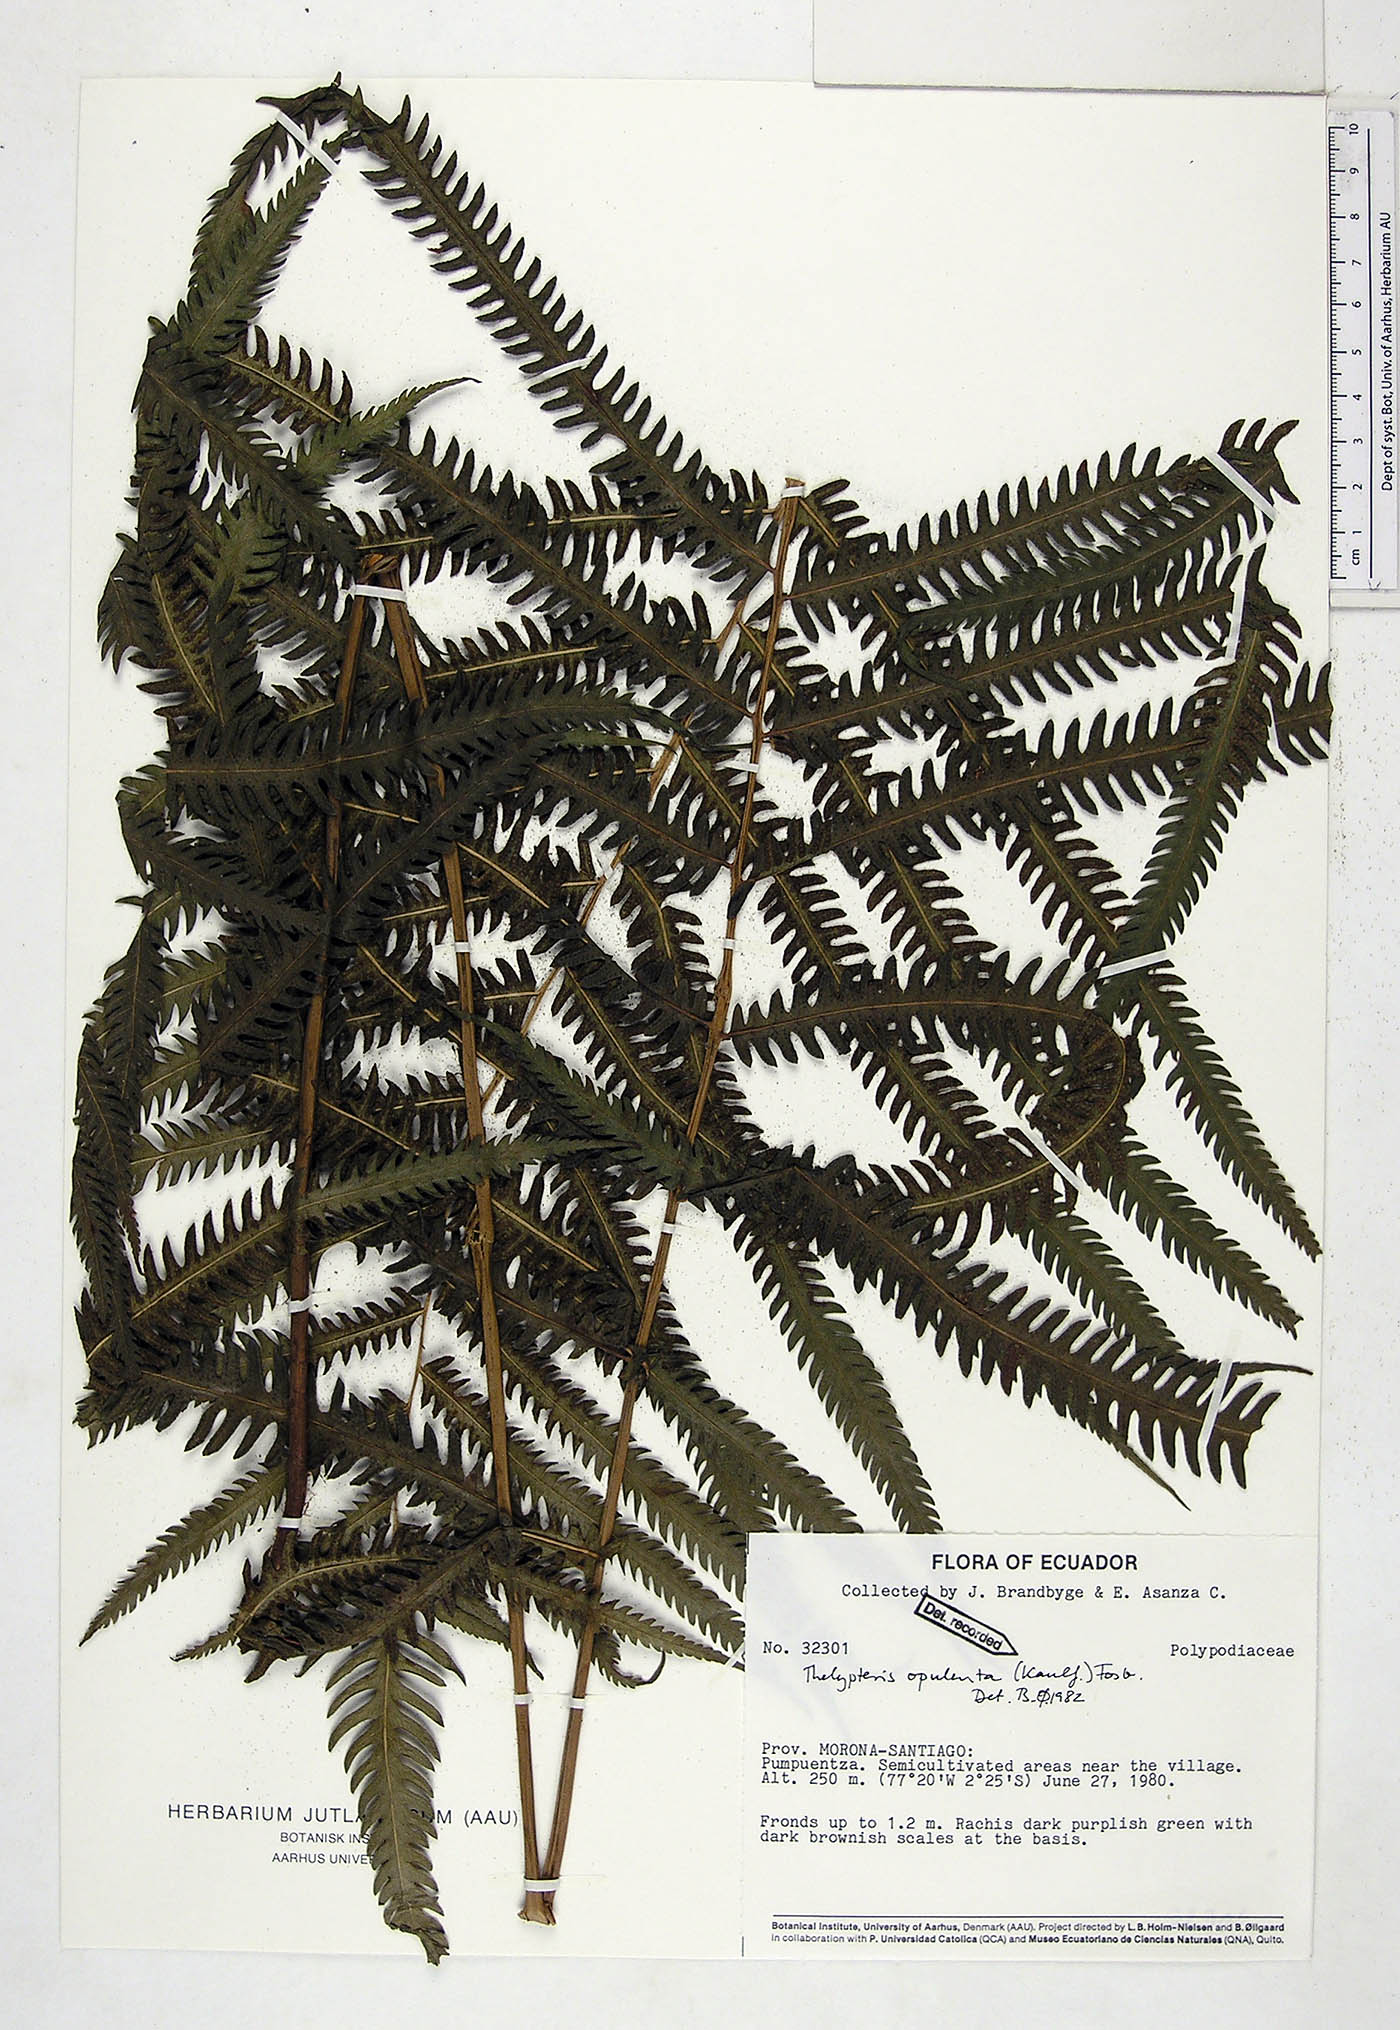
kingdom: Plantae
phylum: Tracheophyta
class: Polypodiopsida
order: Polypodiales
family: Thelypteridaceae
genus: Amblovenatum
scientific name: Amblovenatum opulentum
